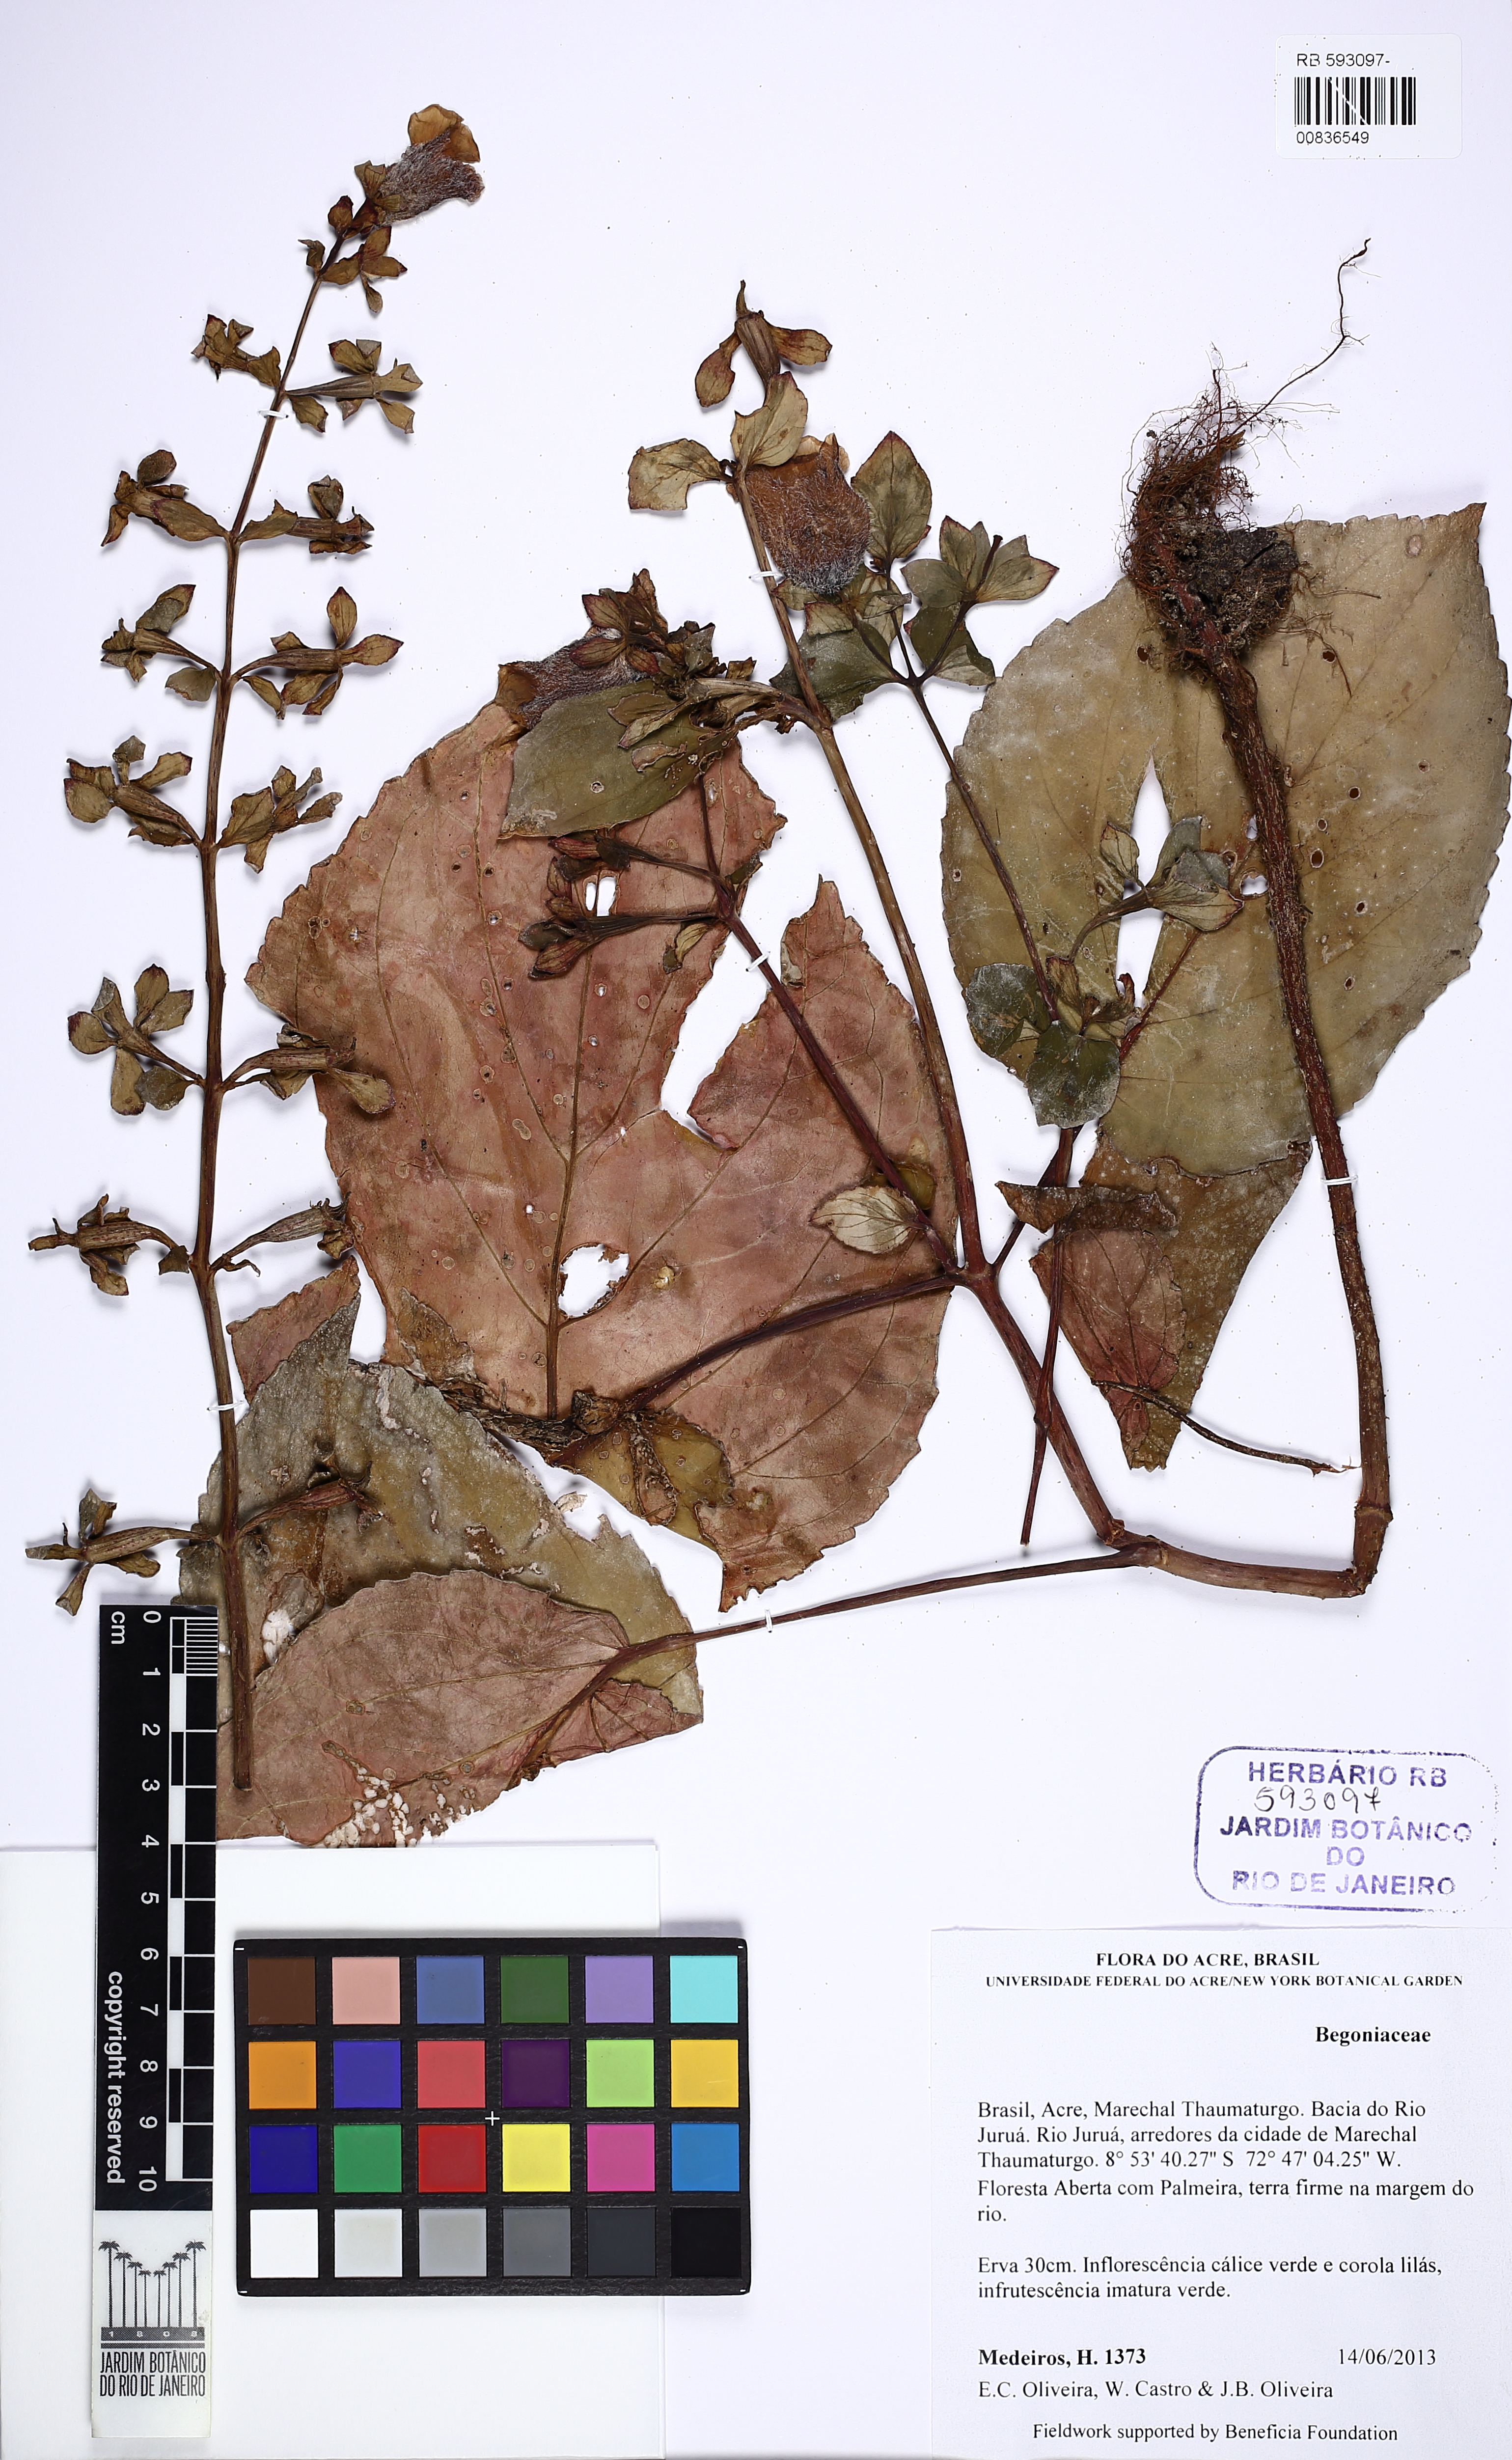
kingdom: Plantae
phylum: Tracheophyta
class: Magnoliopsida
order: Lamiales
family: Gesneriaceae
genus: Gloxinia
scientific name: Gloxinia perennis
